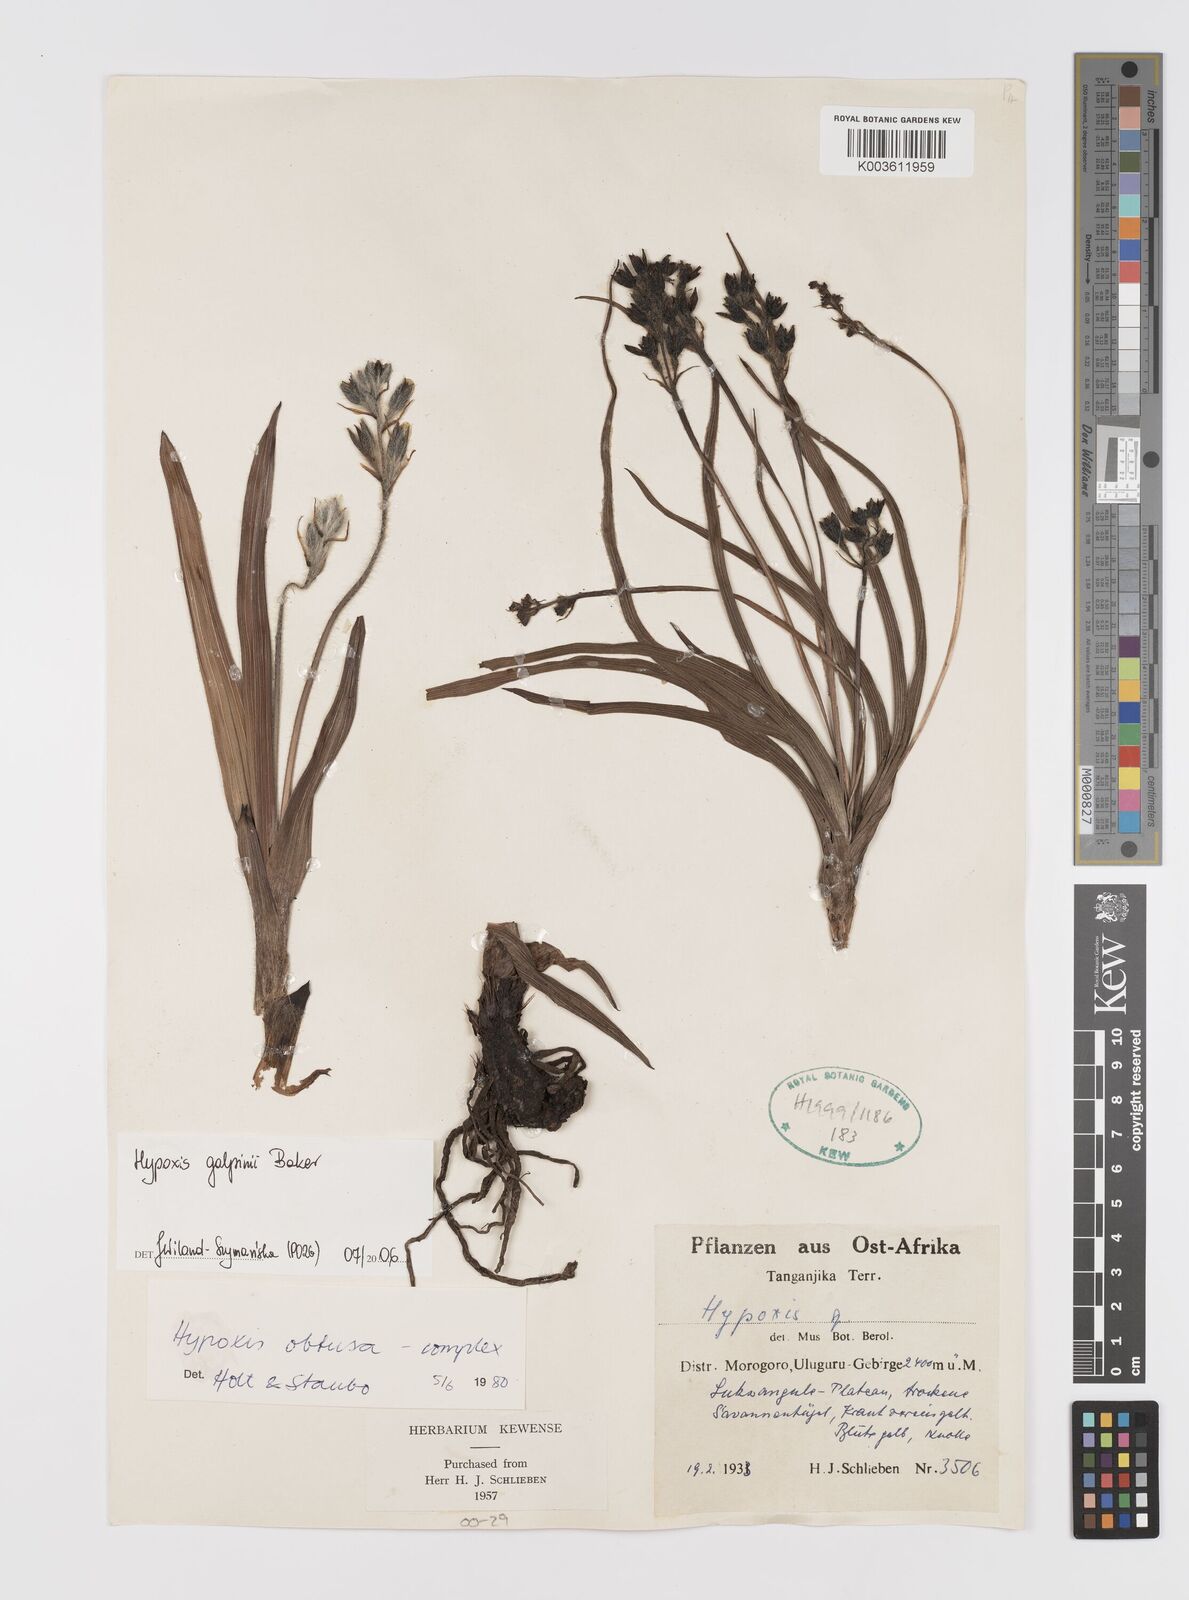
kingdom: Plantae
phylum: Tracheophyta
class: Liliopsida
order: Asparagales
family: Hypoxidaceae
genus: Hypoxis
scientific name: Hypoxis galpinii
